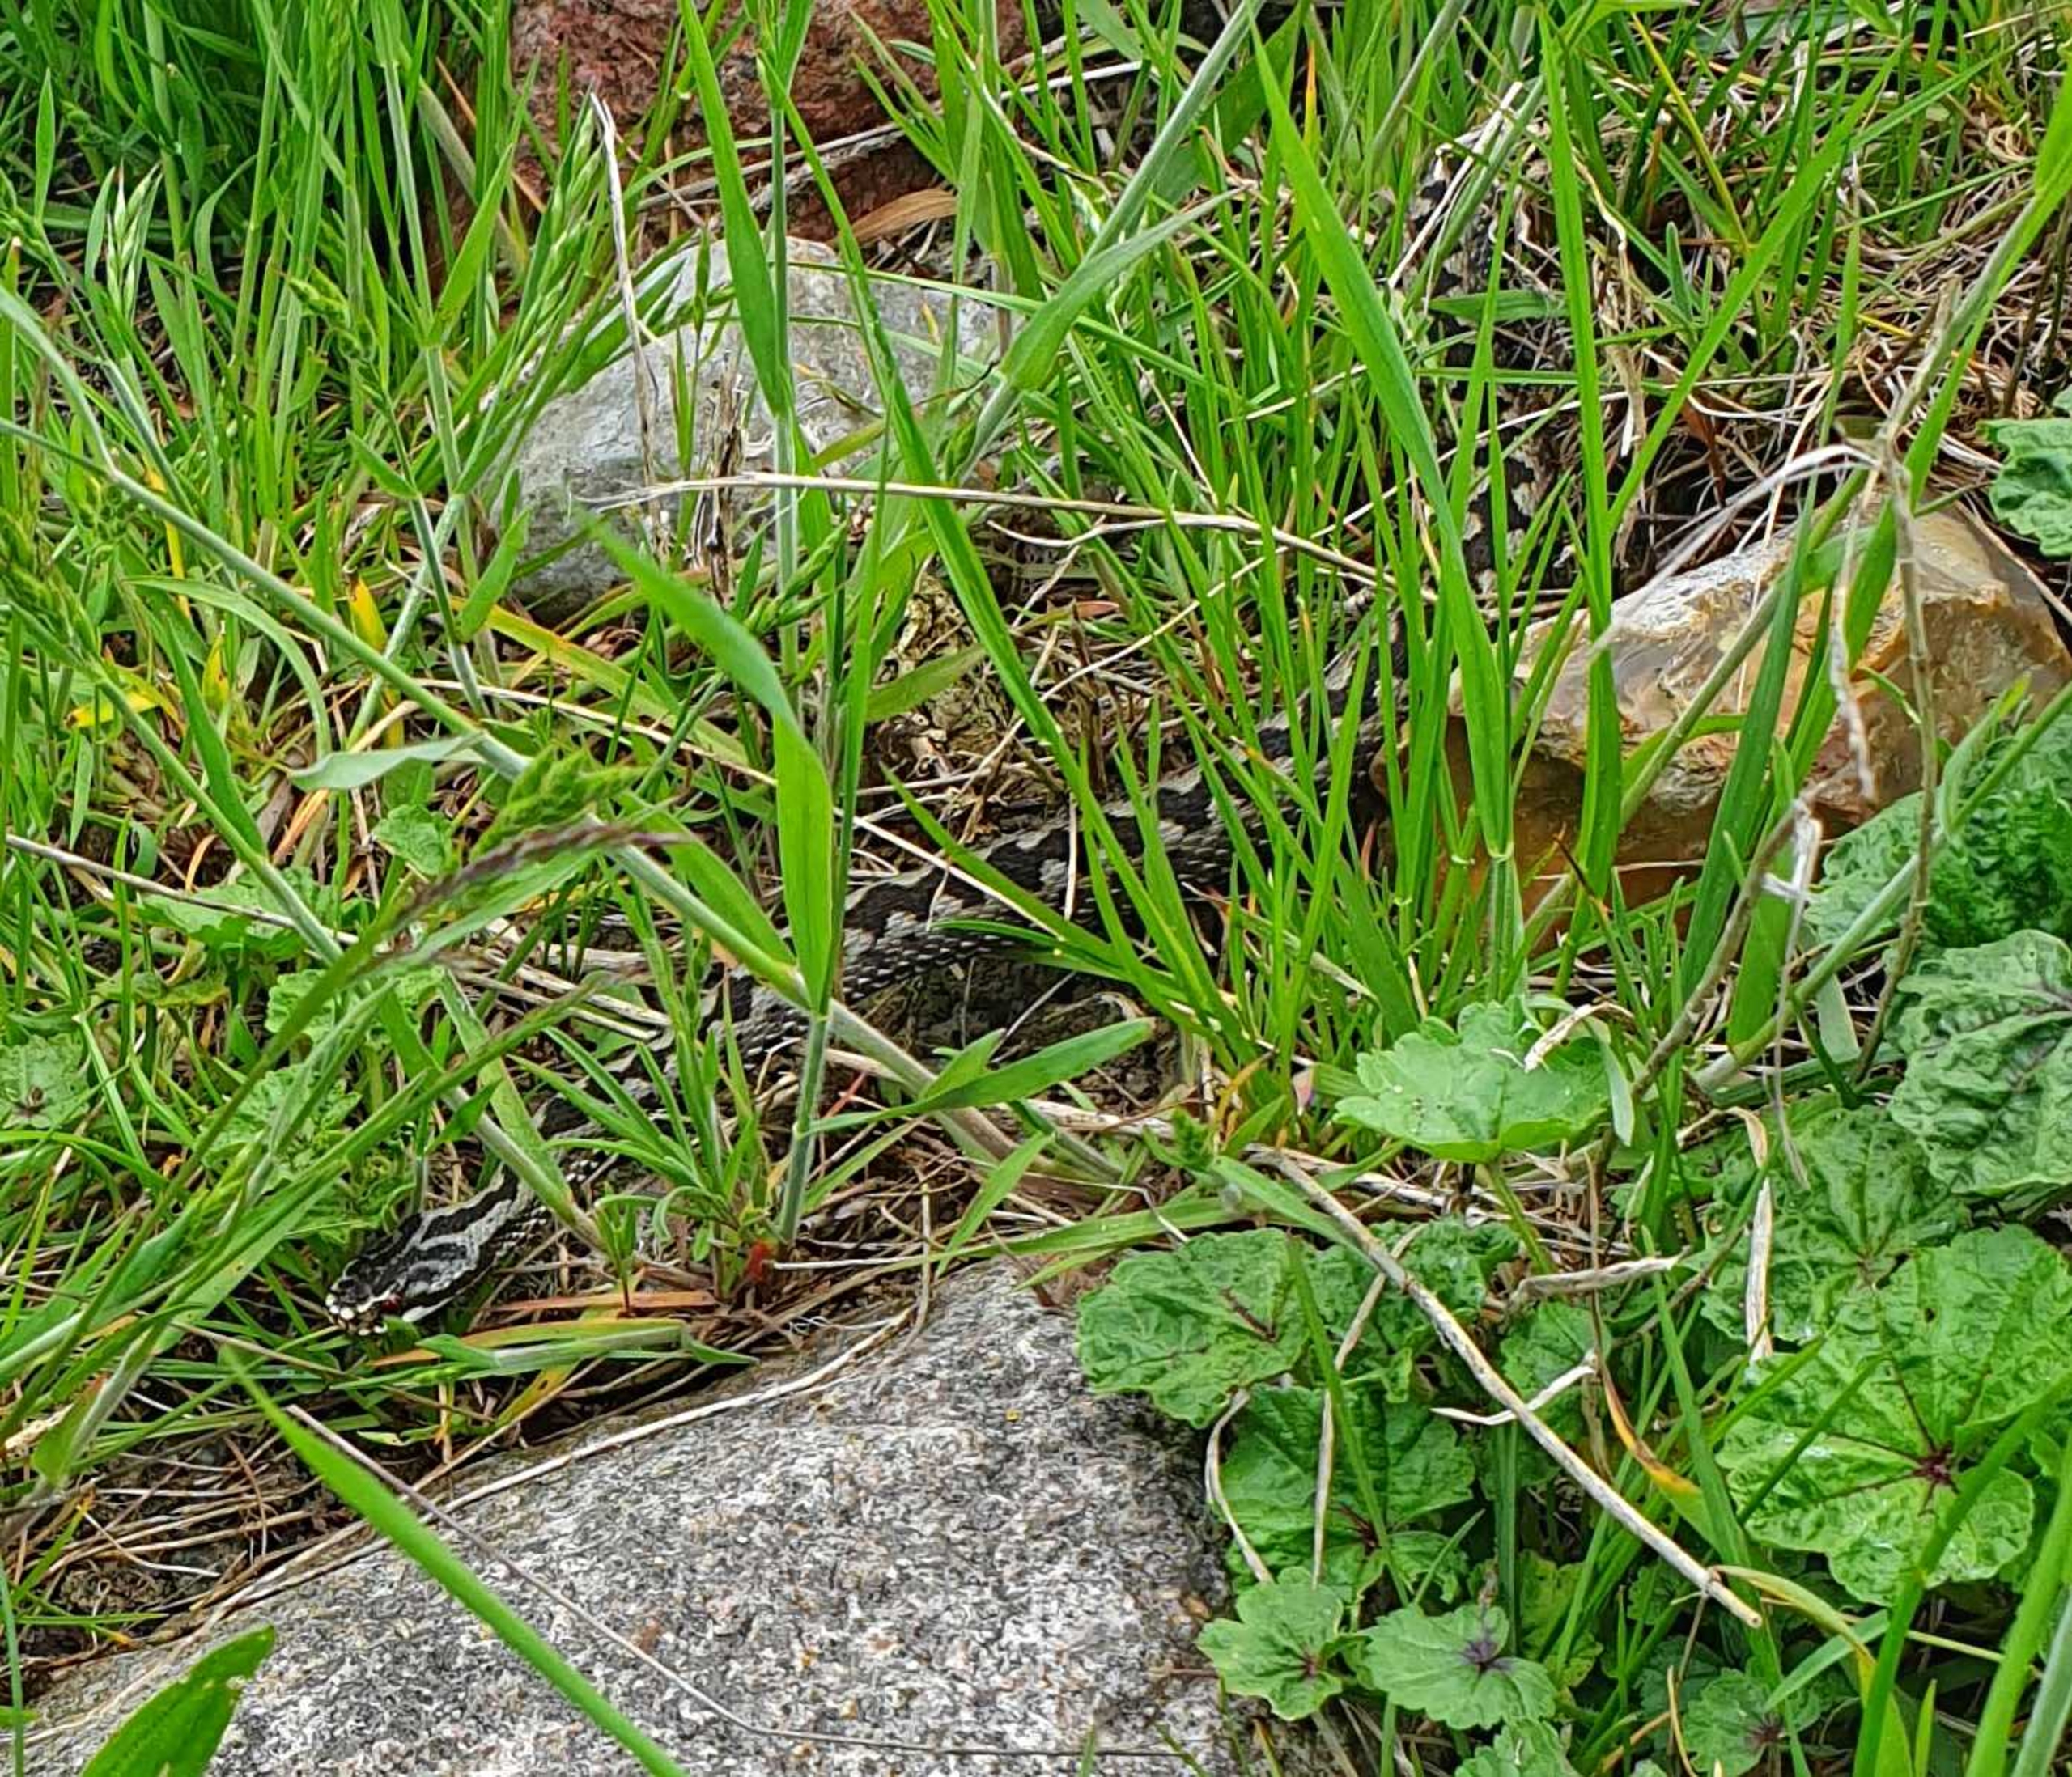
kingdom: Animalia
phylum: Chordata
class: Squamata
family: Viperidae
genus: Vipera
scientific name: Vipera berus
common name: Hugorm
